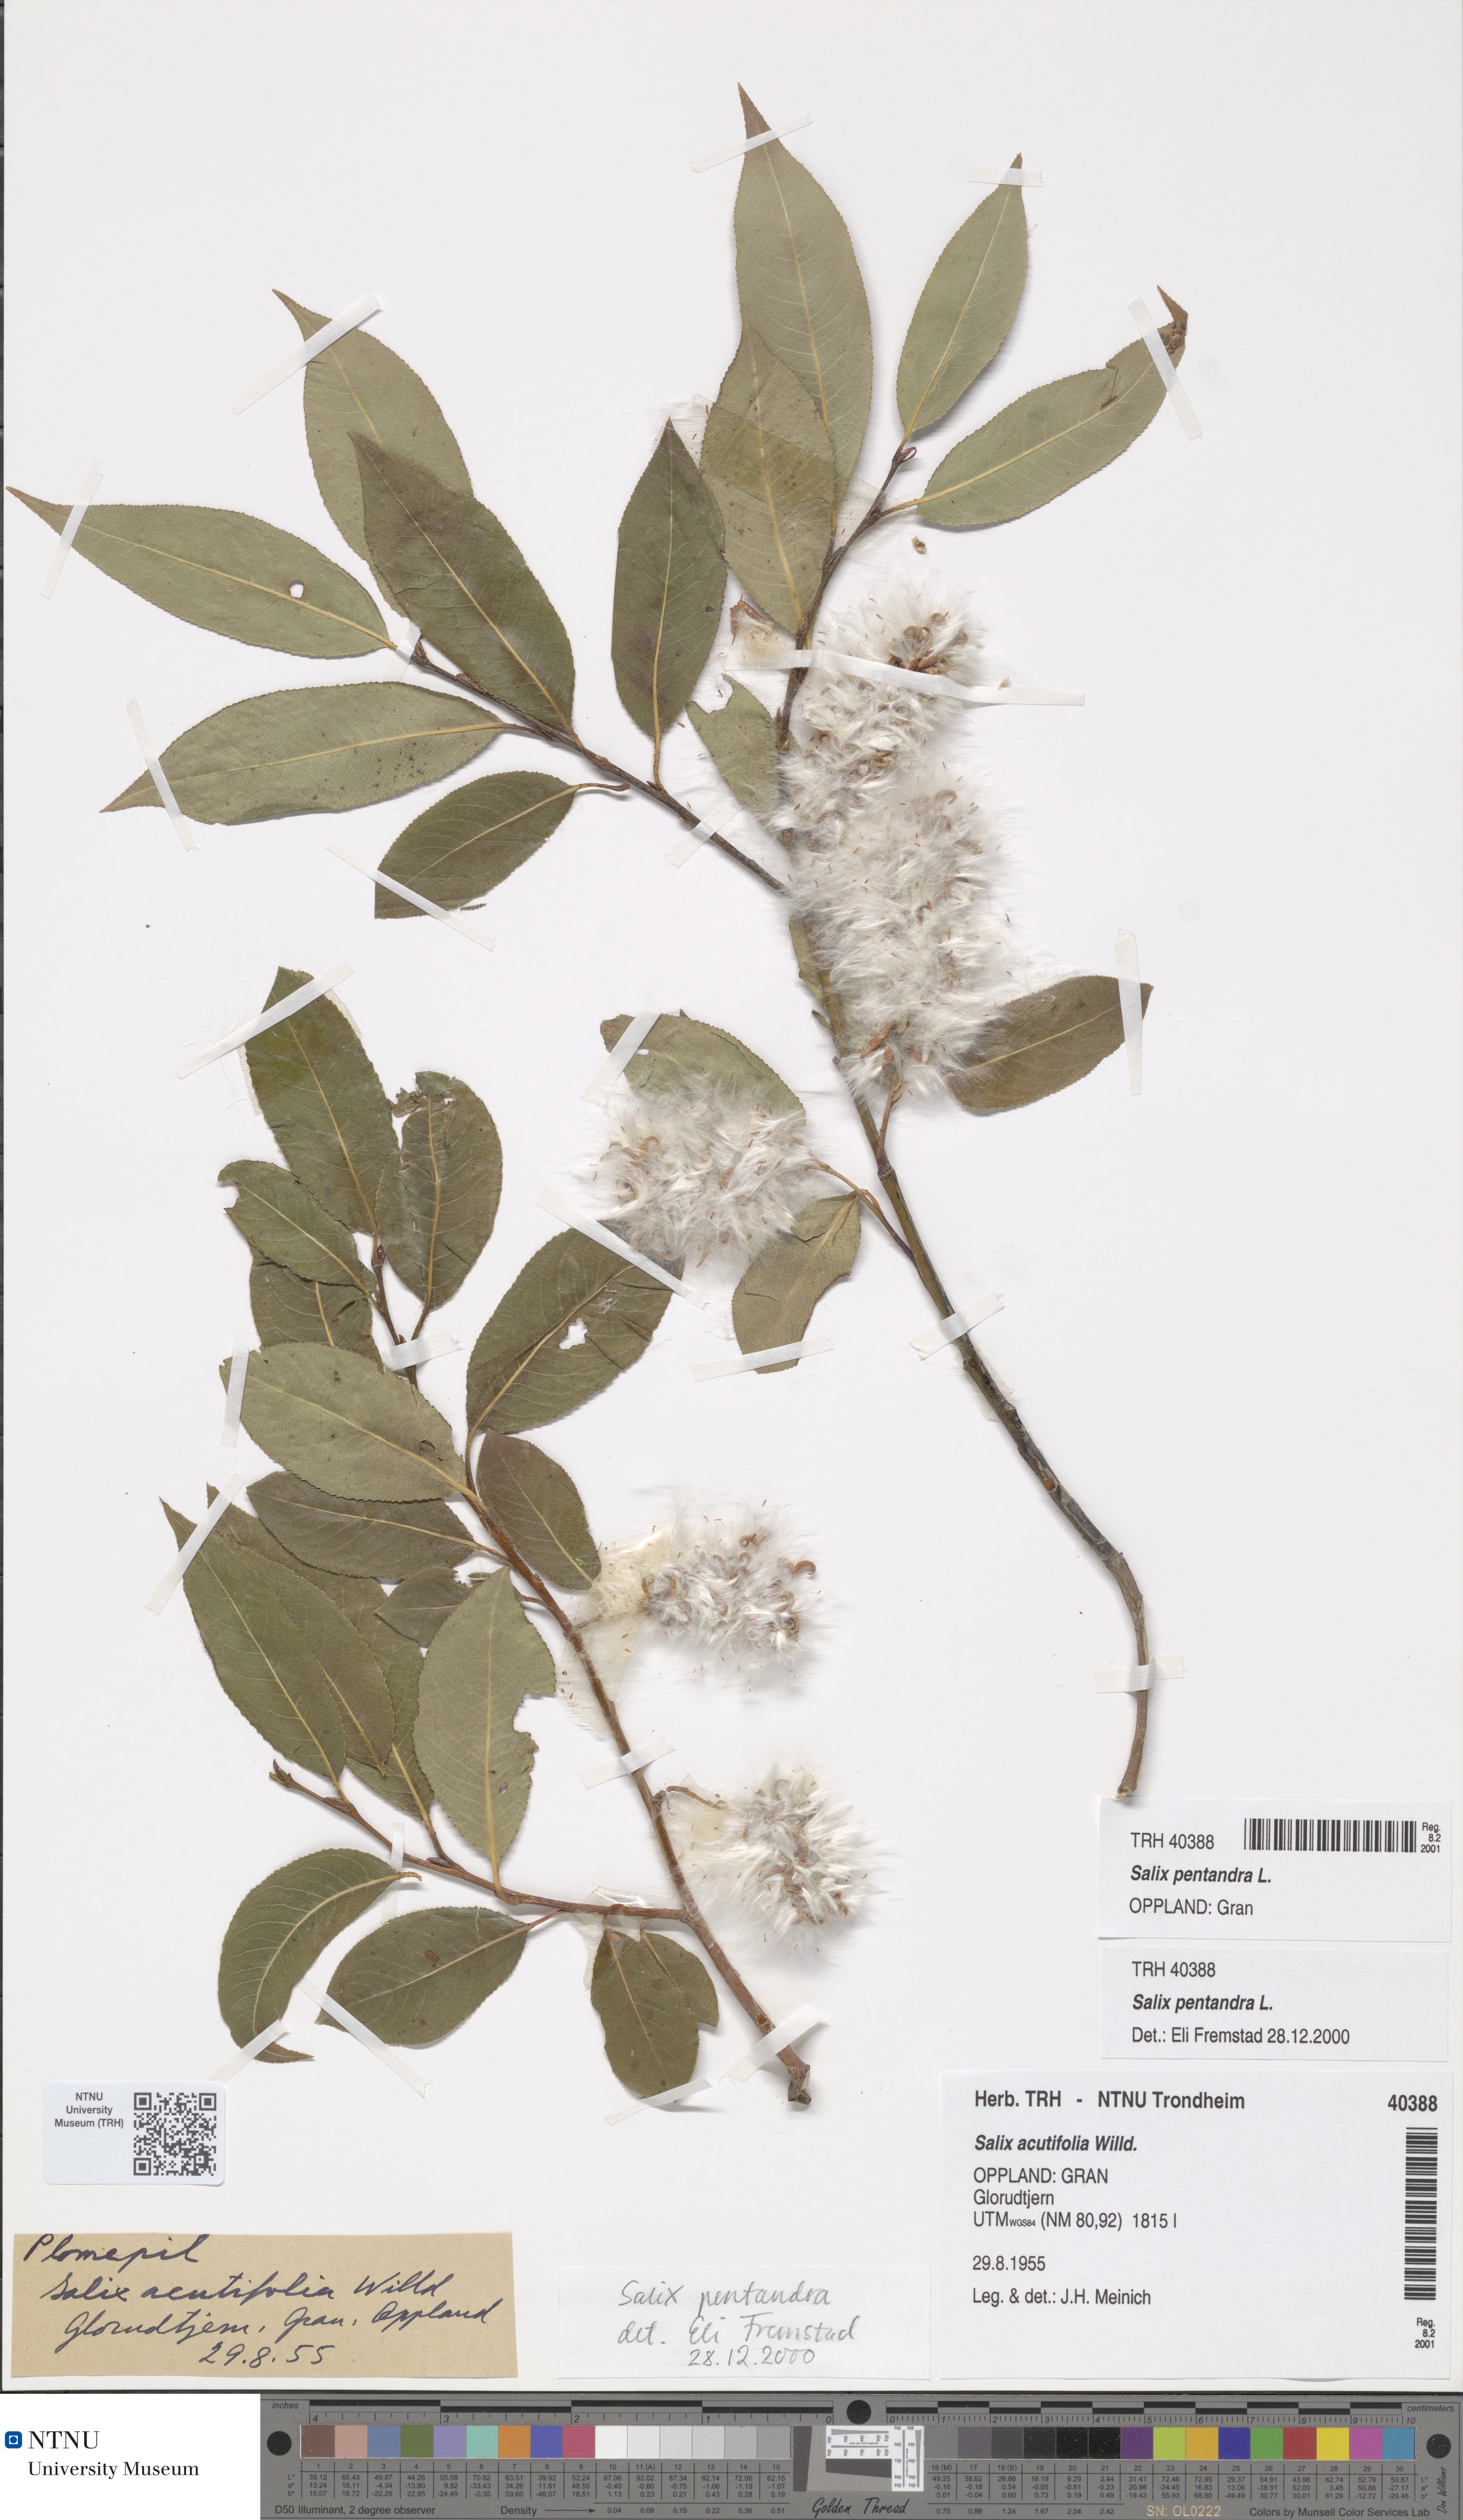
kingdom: Plantae
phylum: Tracheophyta
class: Magnoliopsida
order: Malpighiales
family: Salicaceae
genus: Salix
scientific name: Salix pentandra
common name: Bay willow
